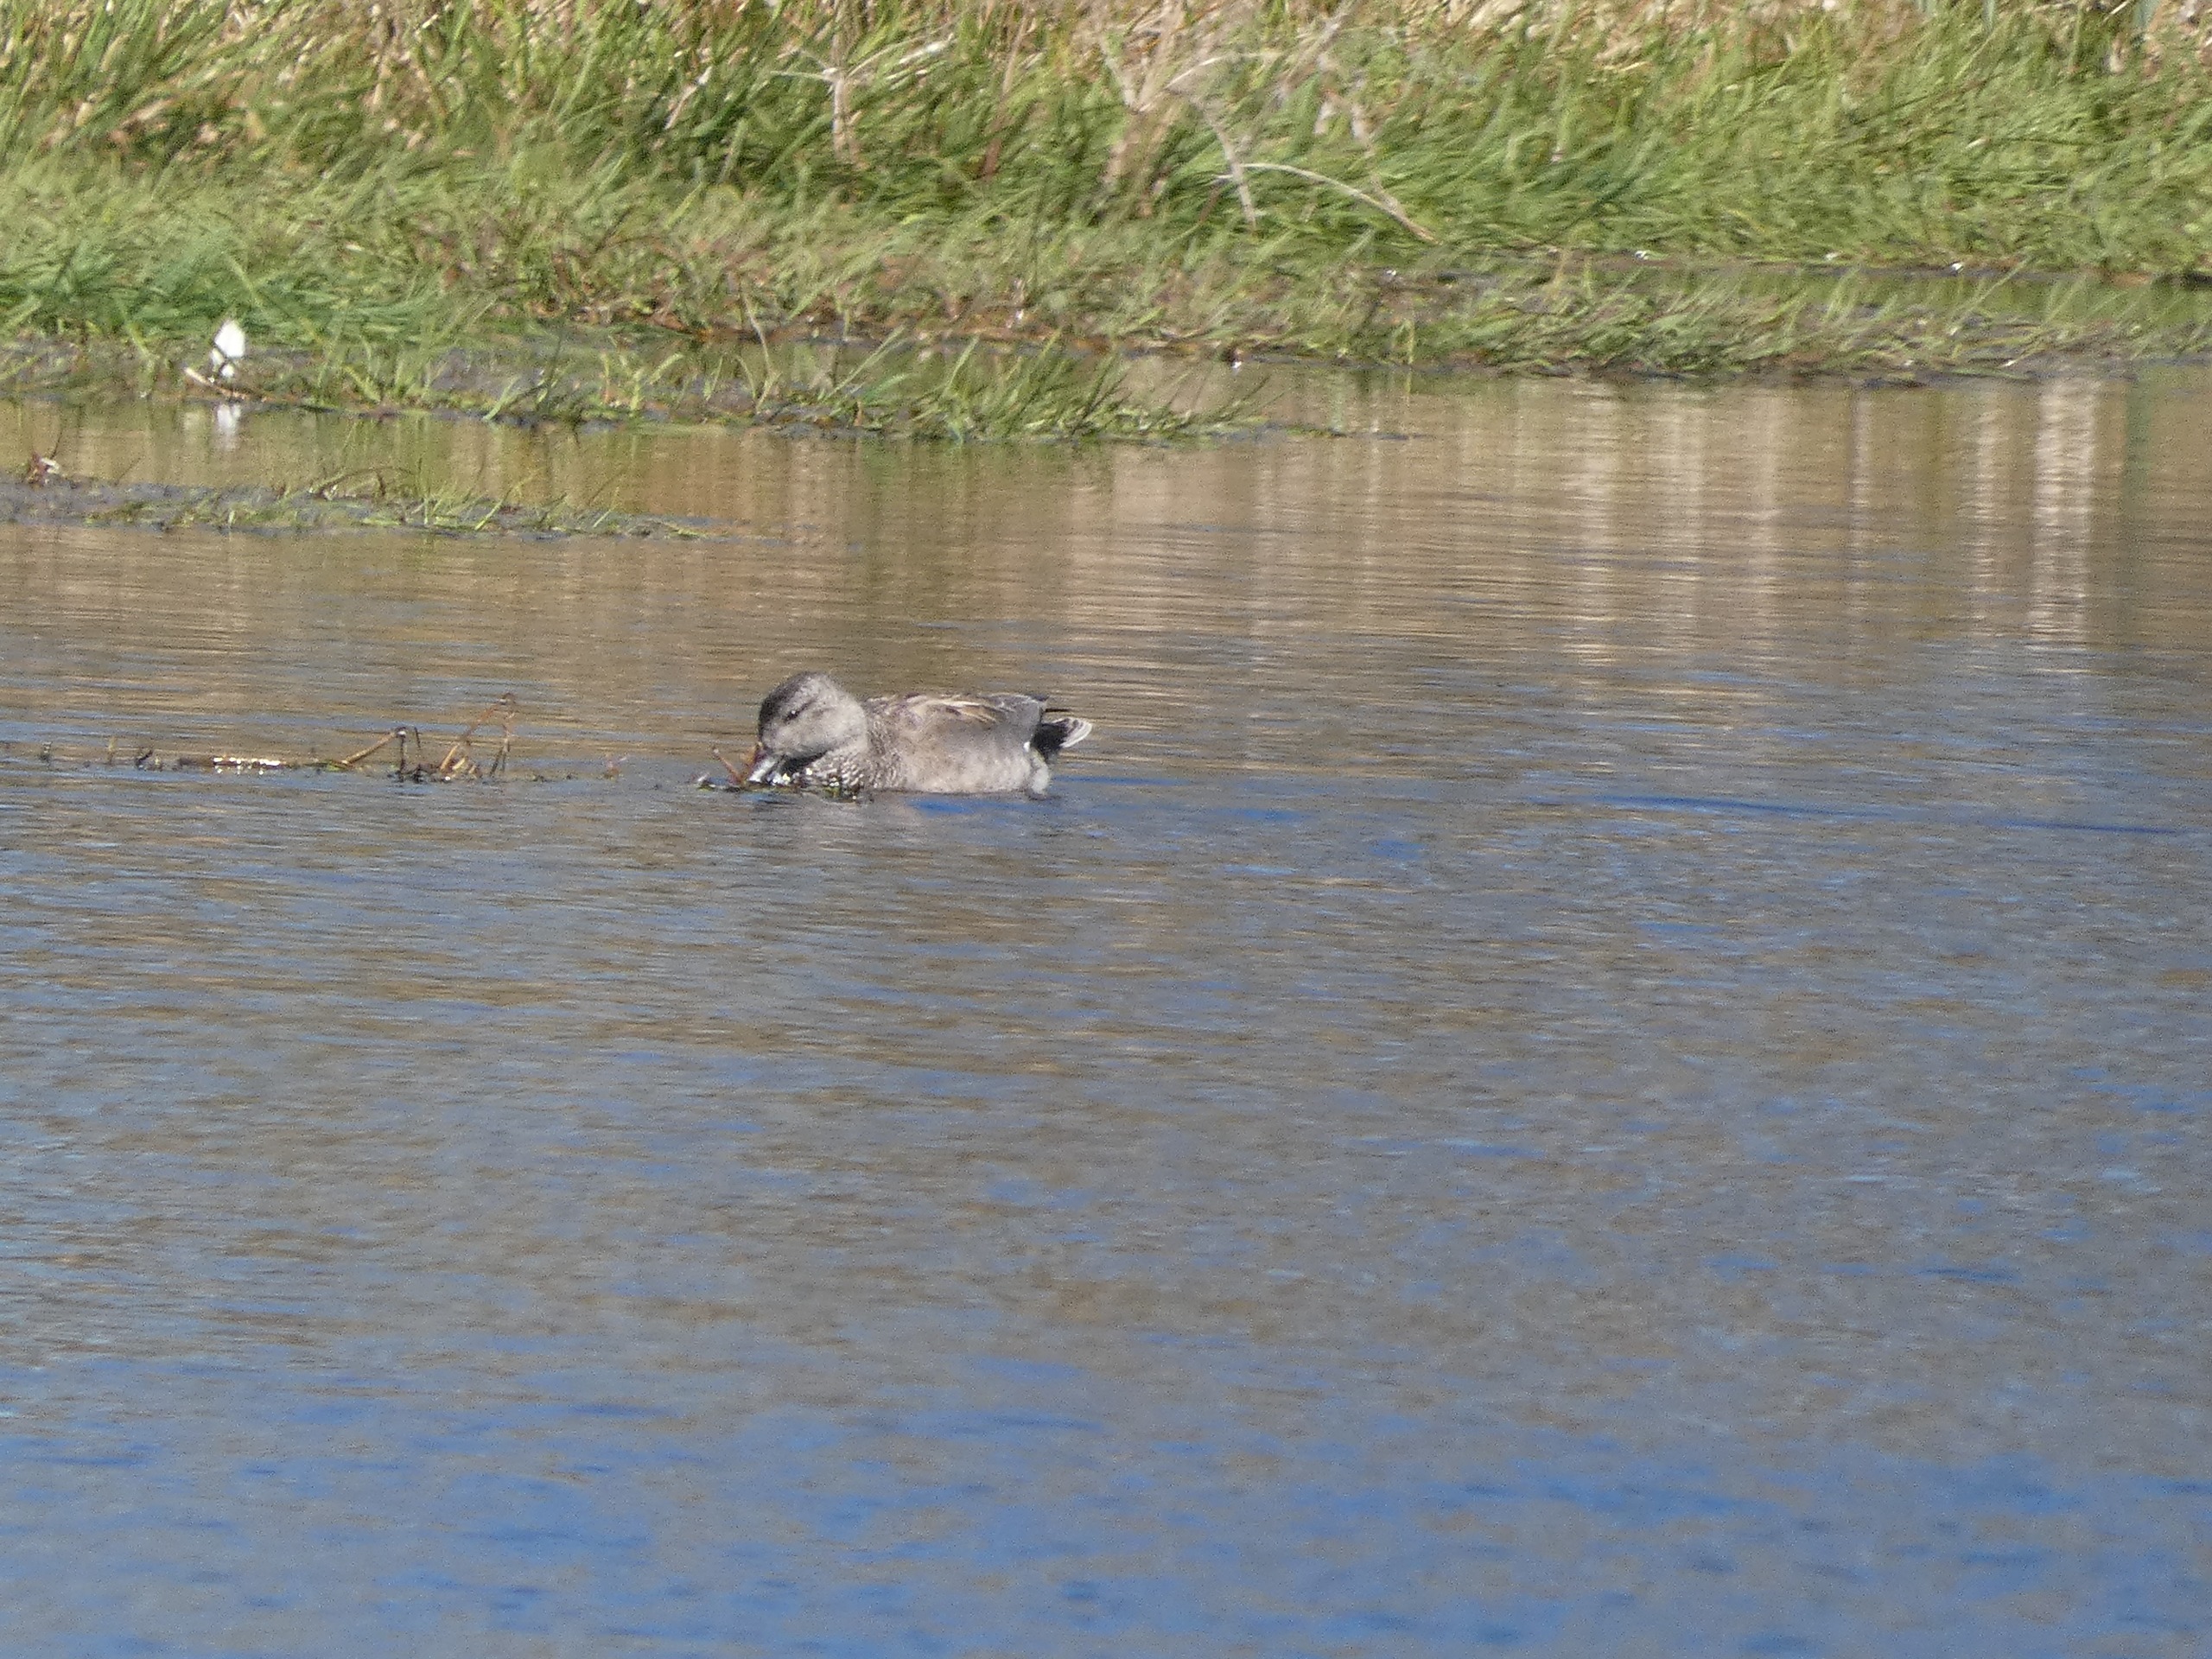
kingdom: Animalia
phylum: Chordata
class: Aves
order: Anseriformes
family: Anatidae
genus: Mareca
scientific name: Mareca strepera
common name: Knarand
